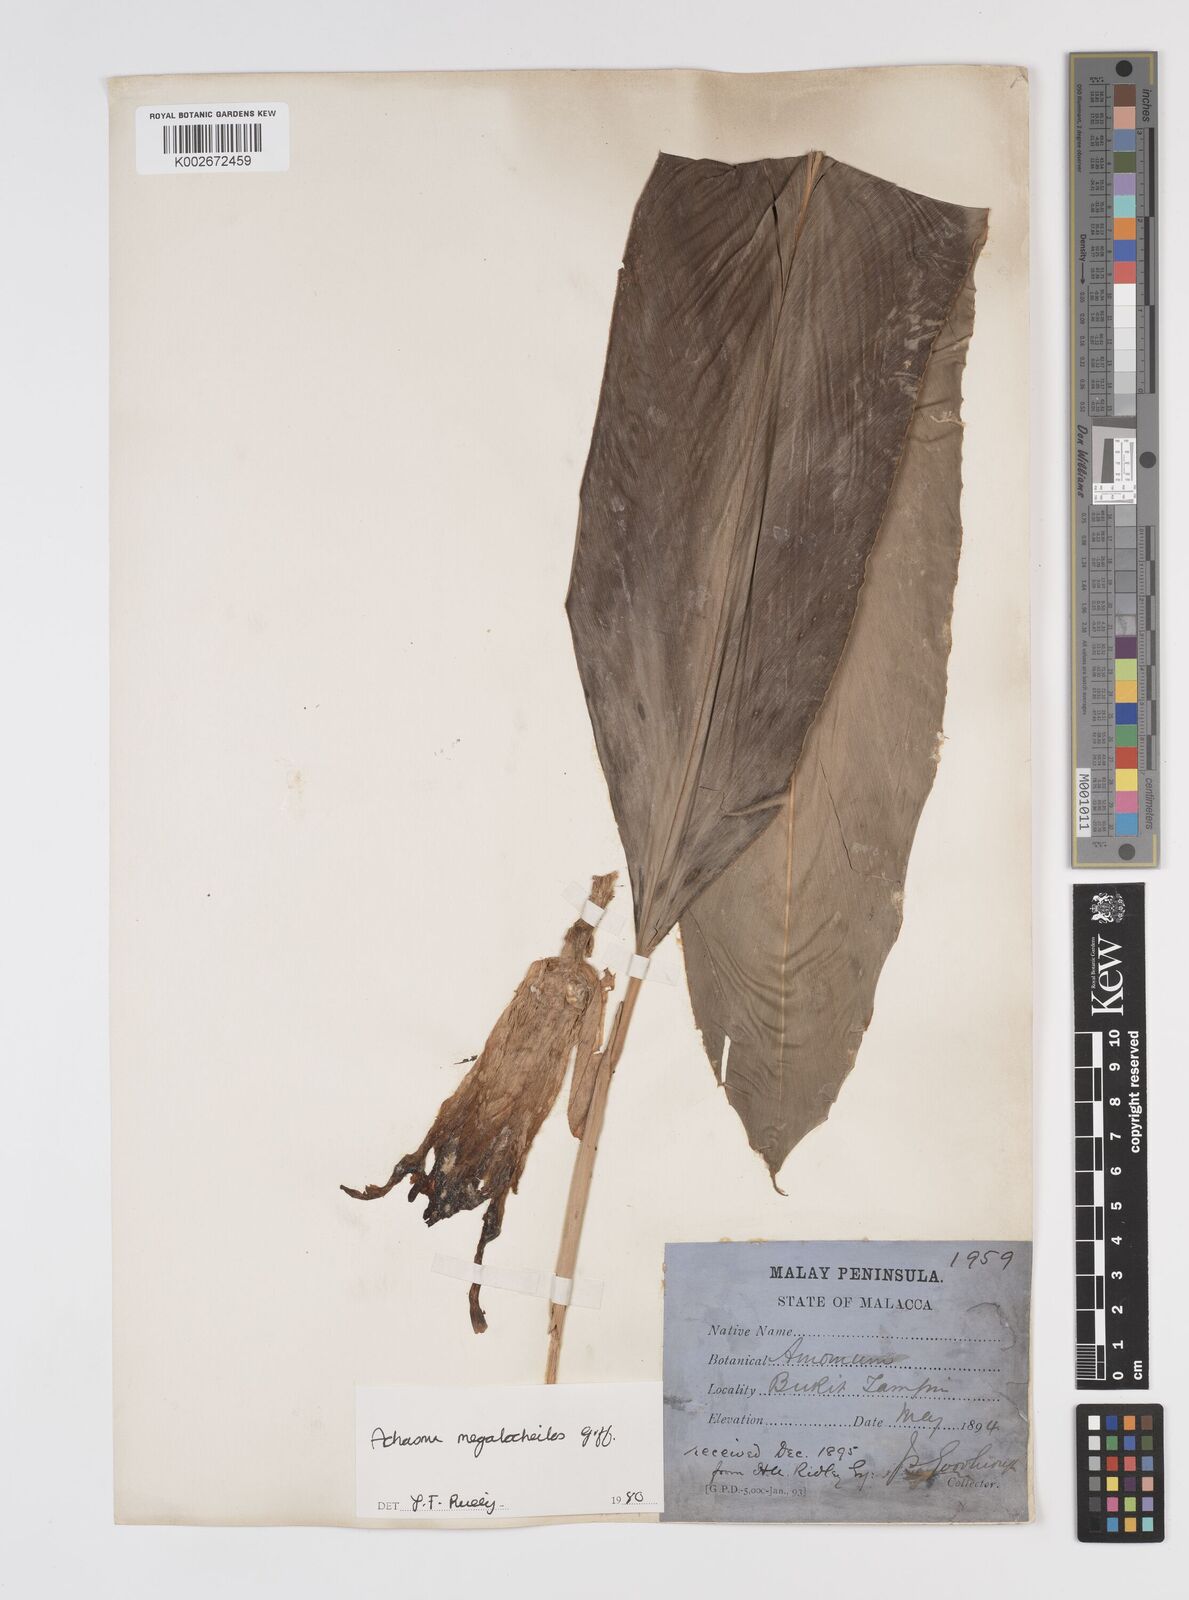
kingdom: Plantae
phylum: Tracheophyta
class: Liliopsida
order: Zingiberales
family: Zingiberaceae
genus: Etlingera
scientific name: Etlingera littoralis
